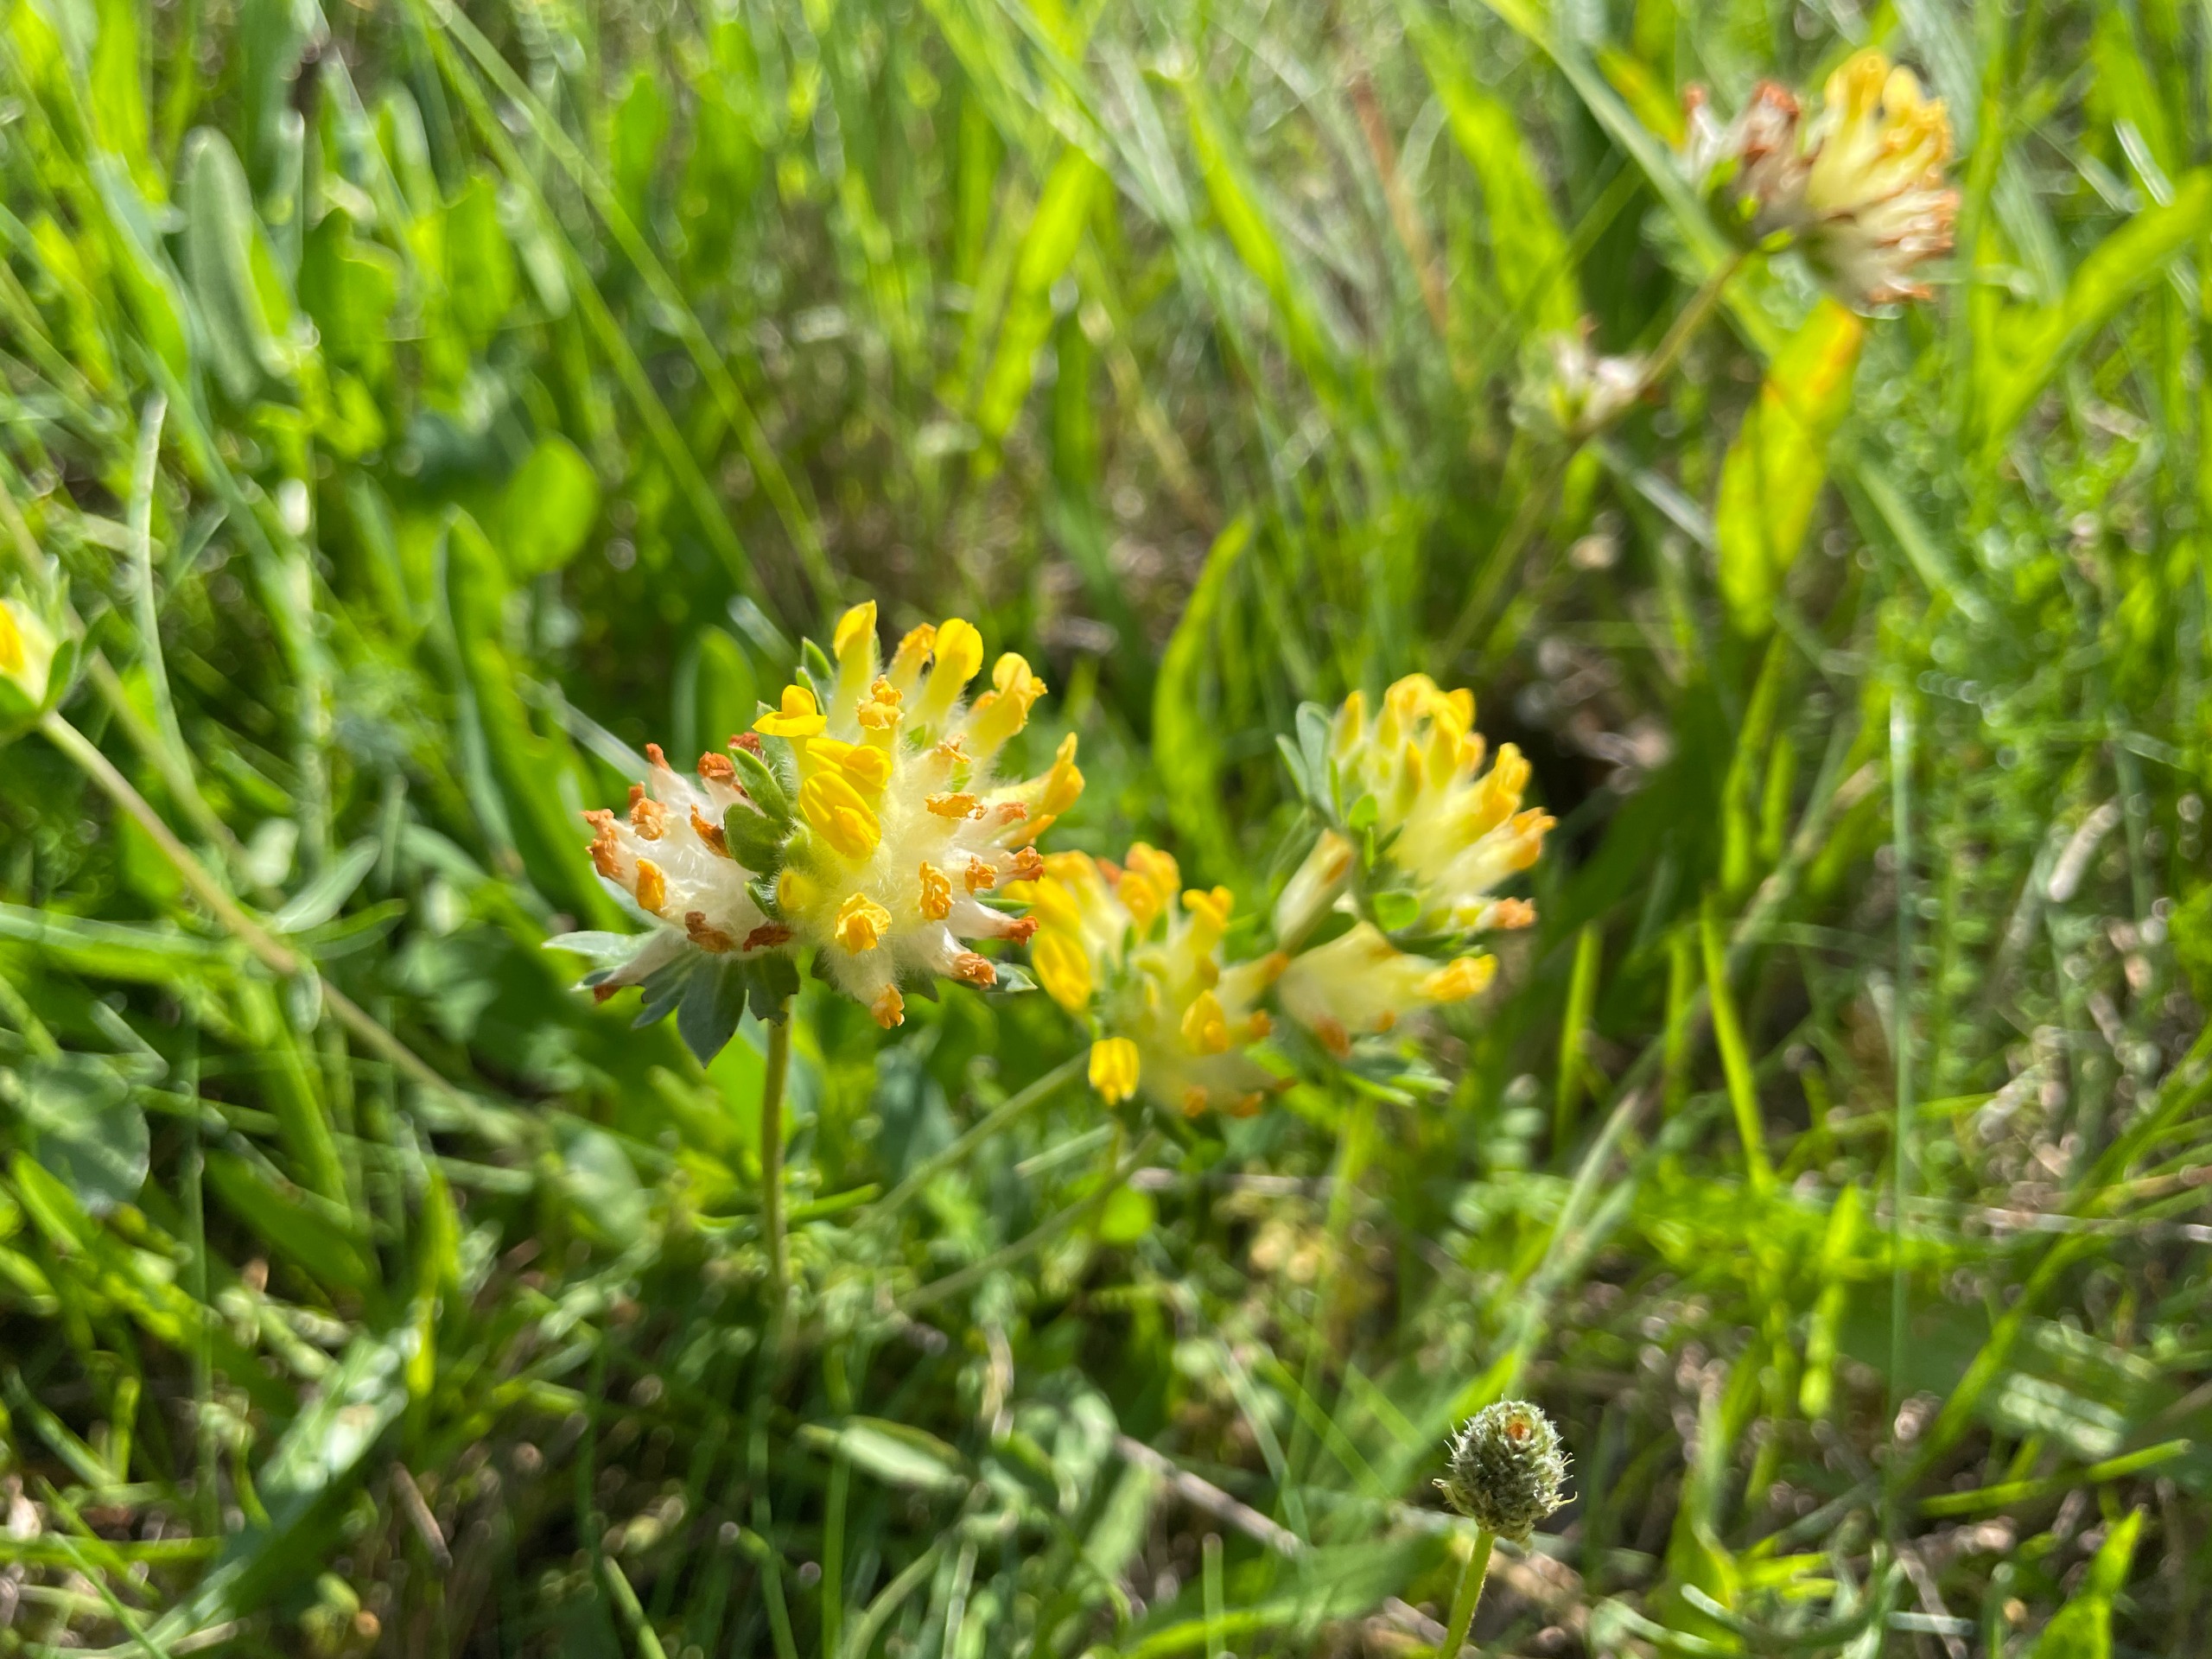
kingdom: Plantae
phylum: Tracheophyta
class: Magnoliopsida
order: Fabales
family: Fabaceae
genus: Anthyllis
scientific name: Anthyllis vulneraria
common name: Rundbælg
